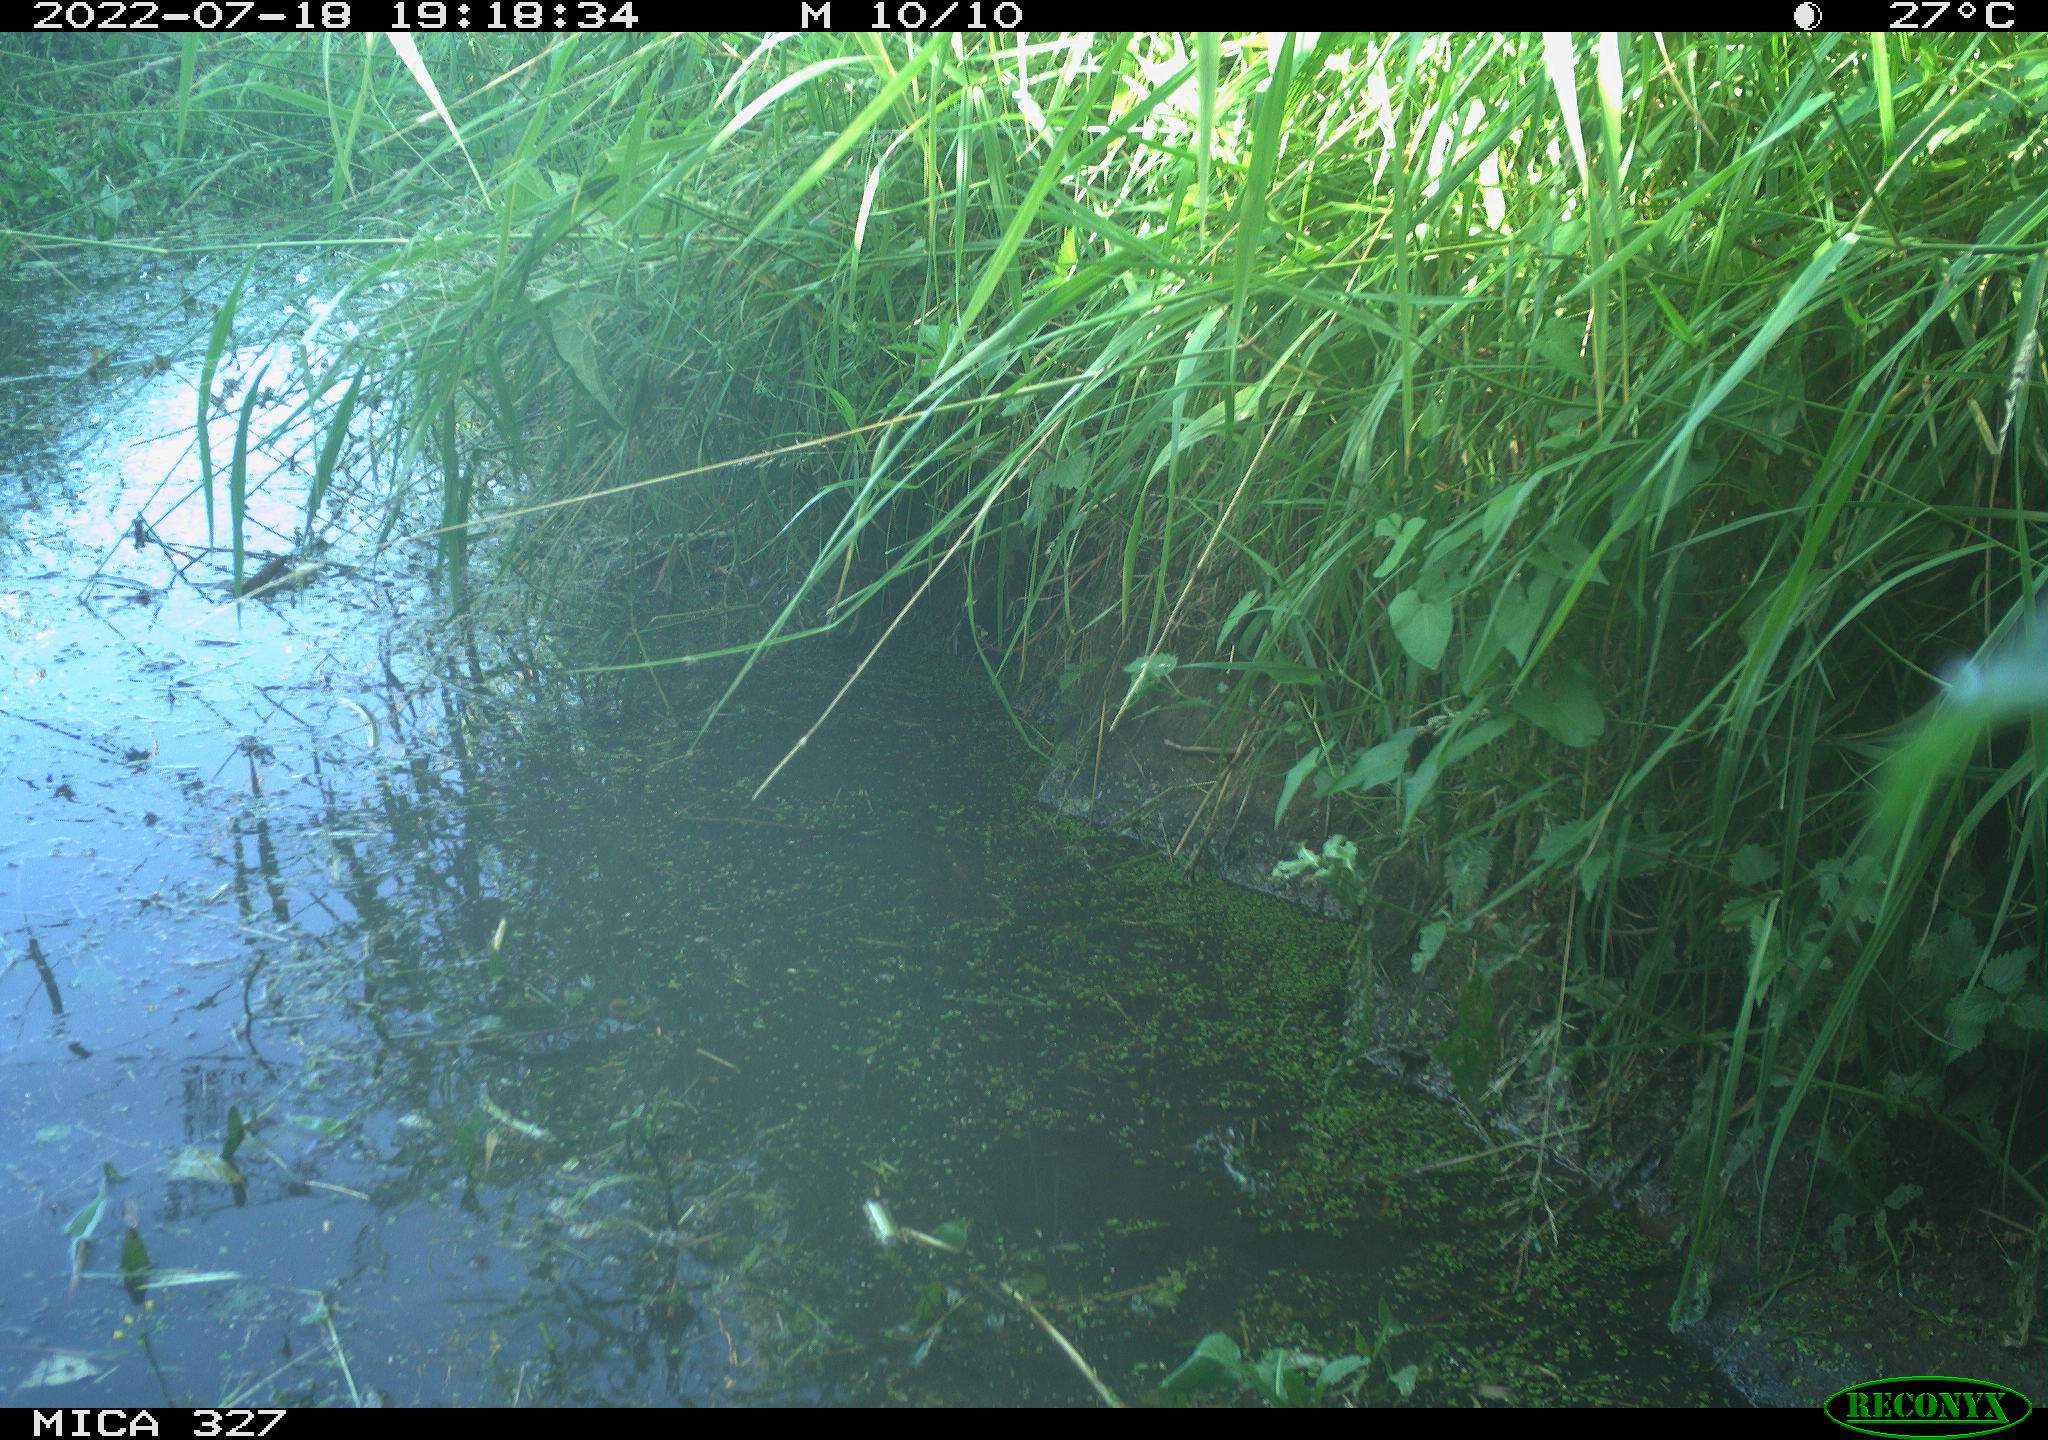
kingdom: Animalia
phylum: Chordata
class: Aves
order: Gruiformes
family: Rallidae
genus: Gallinula
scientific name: Gallinula chloropus
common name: Common moorhen
